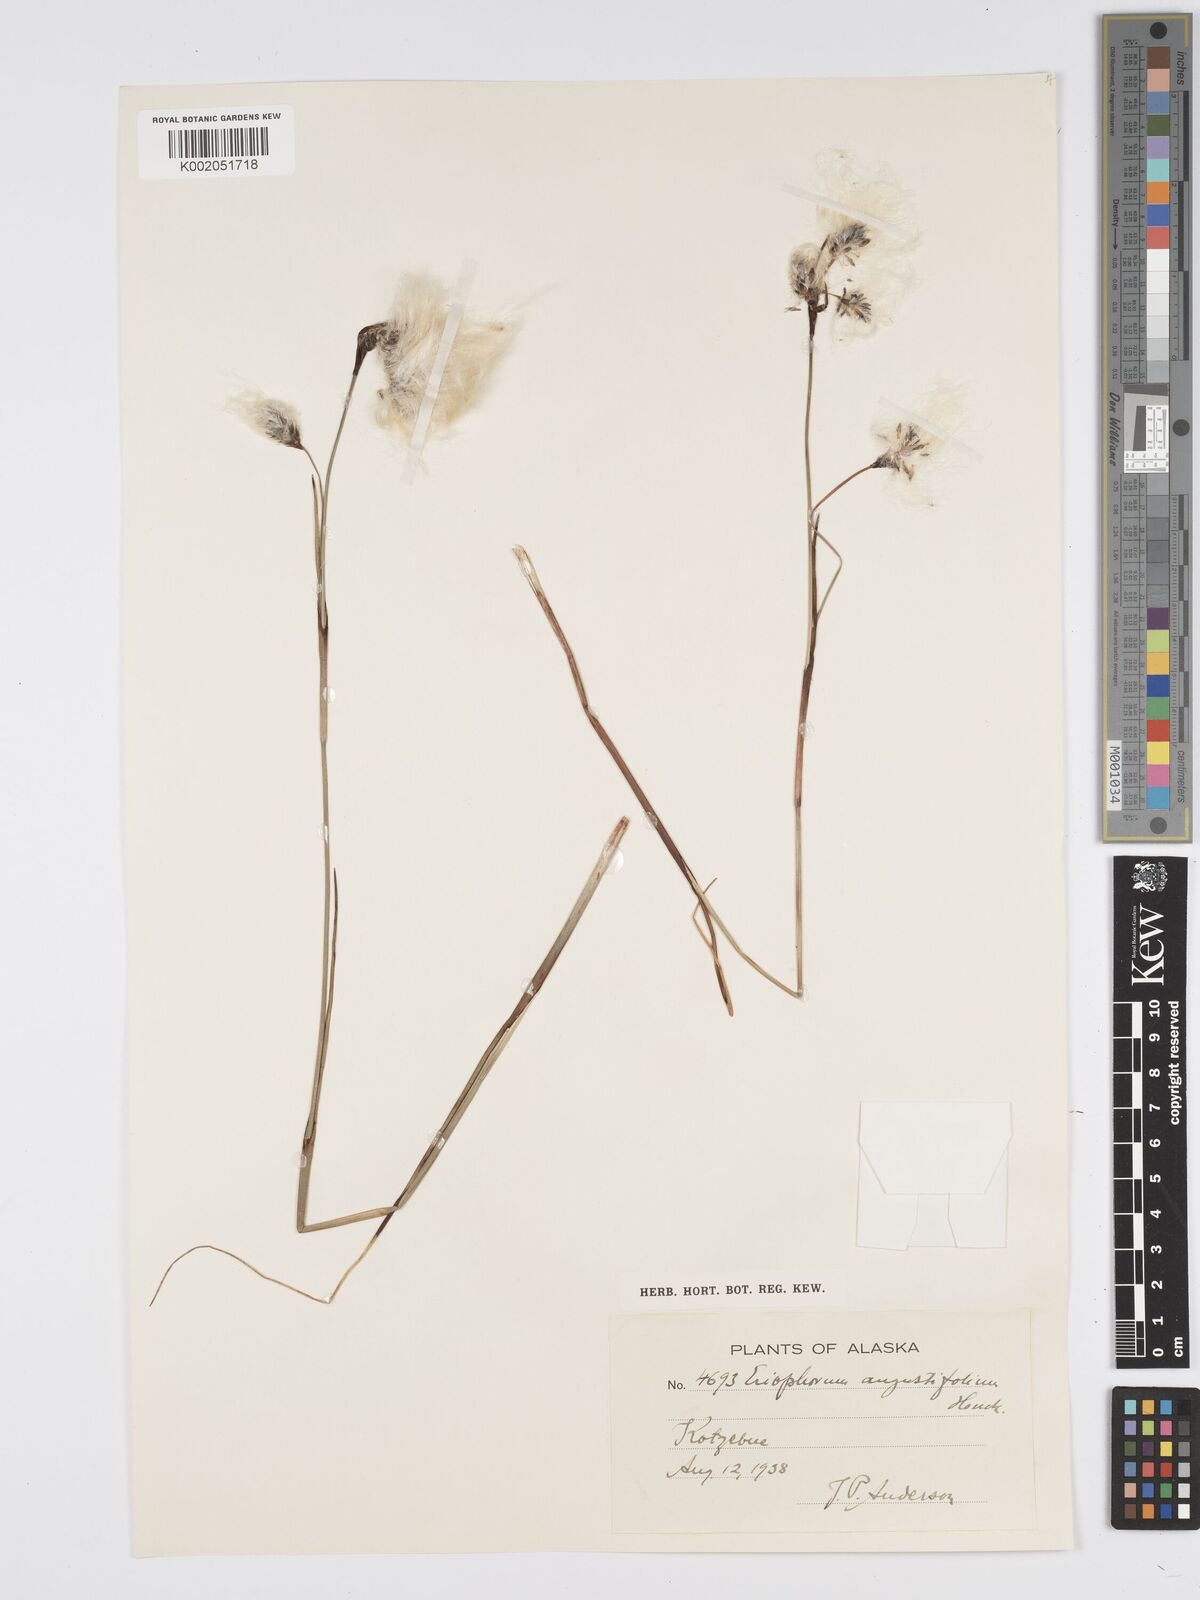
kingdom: Plantae
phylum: Tracheophyta
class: Liliopsida
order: Poales
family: Cyperaceae
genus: Eriophorum
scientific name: Eriophorum angustifolium
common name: Common cottongrass
